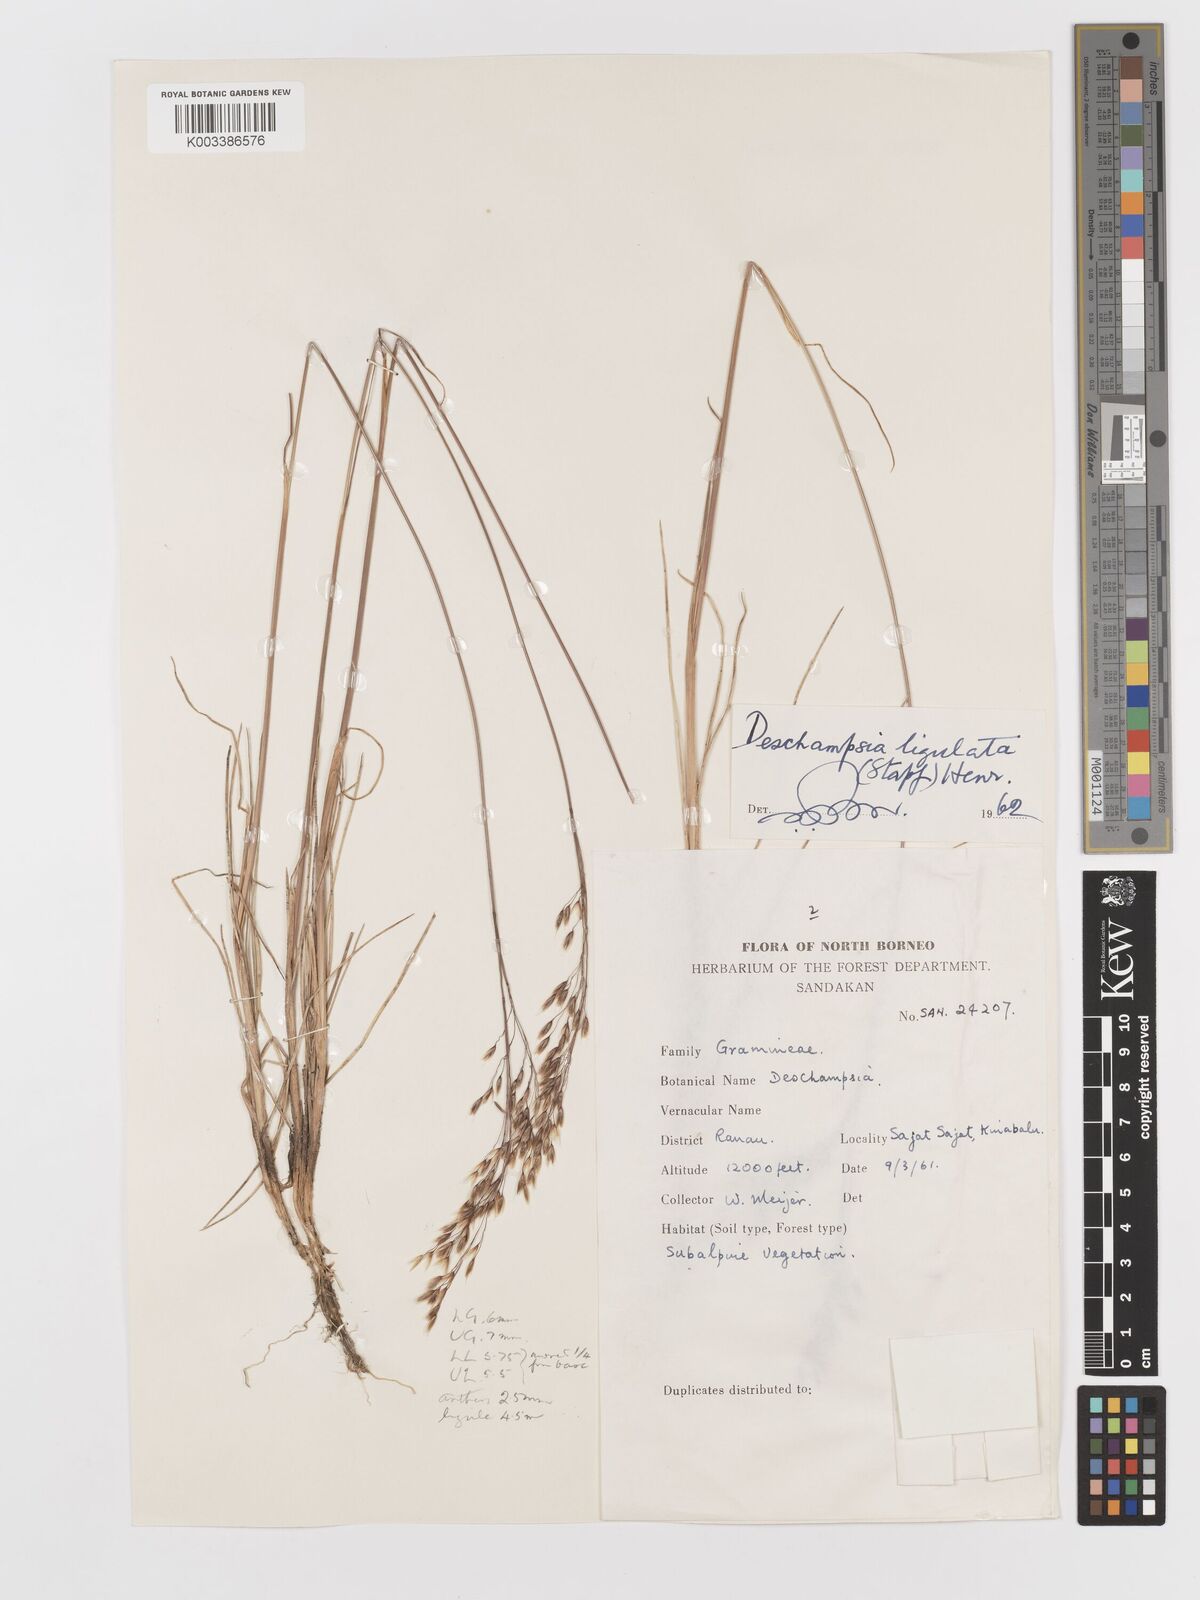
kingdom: Plantae
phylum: Tracheophyta
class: Liliopsida
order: Poales
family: Poaceae
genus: Avenella
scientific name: Avenella flexuosa
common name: Wavy hairgrass
